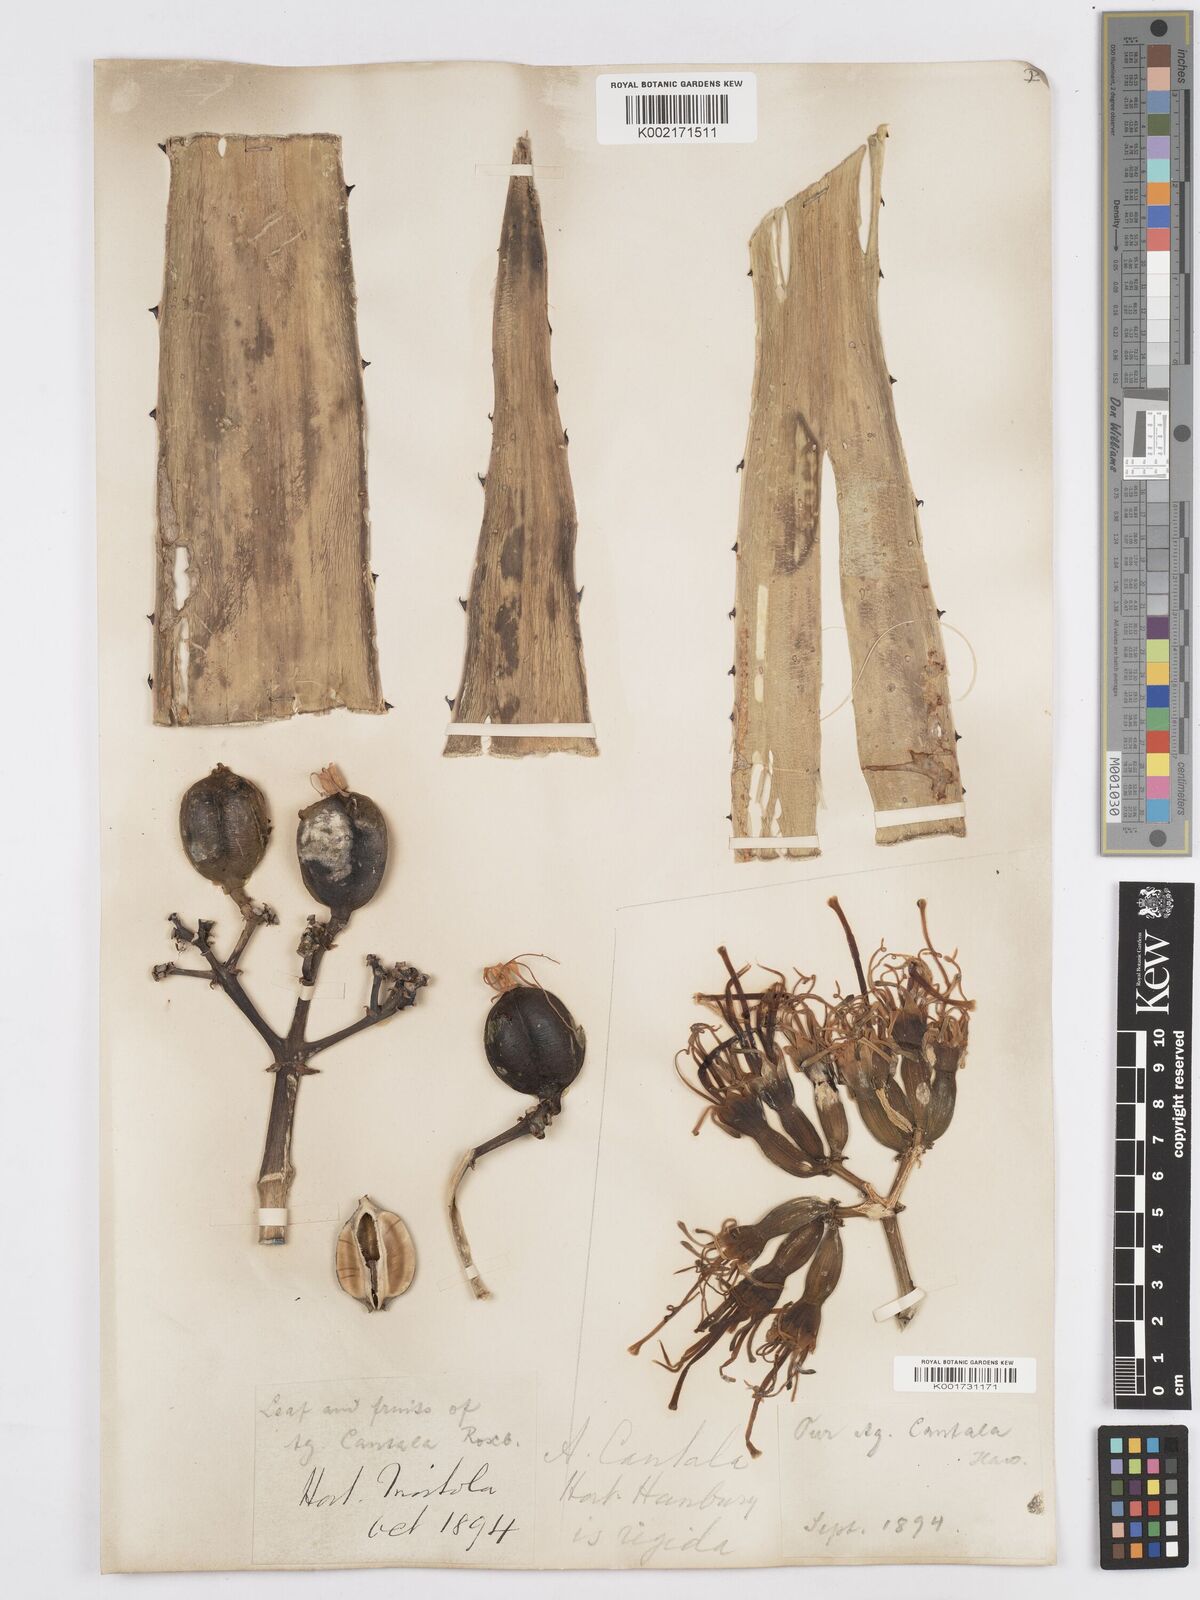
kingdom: Plantae
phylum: Tracheophyta
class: Liliopsida
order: Asparagales
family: Asparagaceae
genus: Agave
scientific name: Agave angustifolia
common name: Mescal agave
